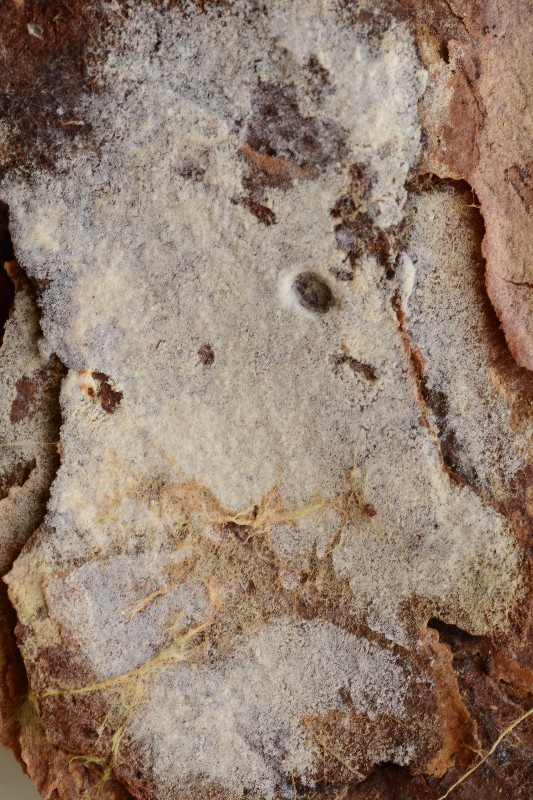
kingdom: Fungi
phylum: Basidiomycota
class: Agaricomycetes
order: Cantharellales
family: Botryobasidiaceae
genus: Botryobasidium
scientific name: Botryobasidium subcoronatum
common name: almindelig spindhinde
